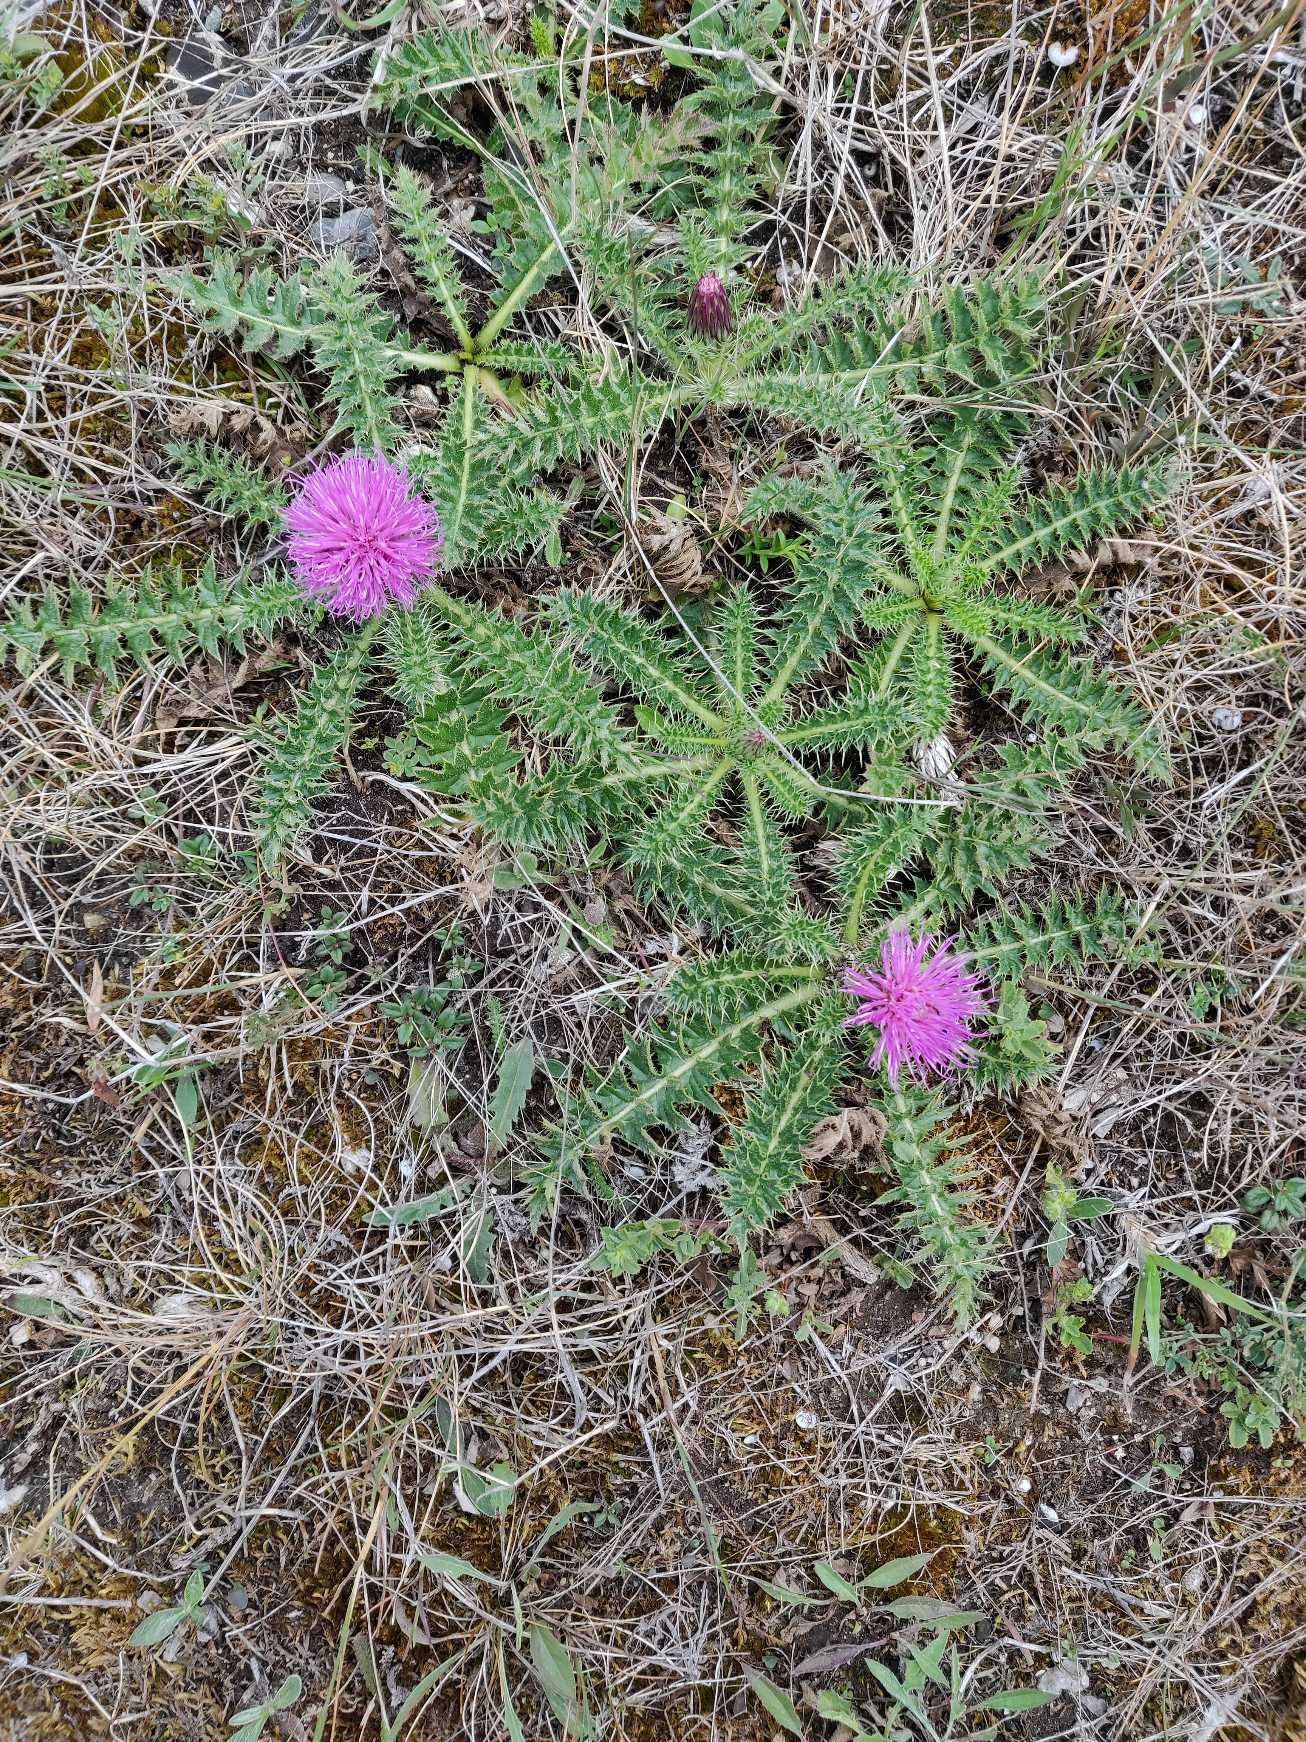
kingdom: Plantae
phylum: Tracheophyta
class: Magnoliopsida
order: Asterales
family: Asteraceae
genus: Cirsium
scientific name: Cirsium acaule
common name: Lav tidsel
